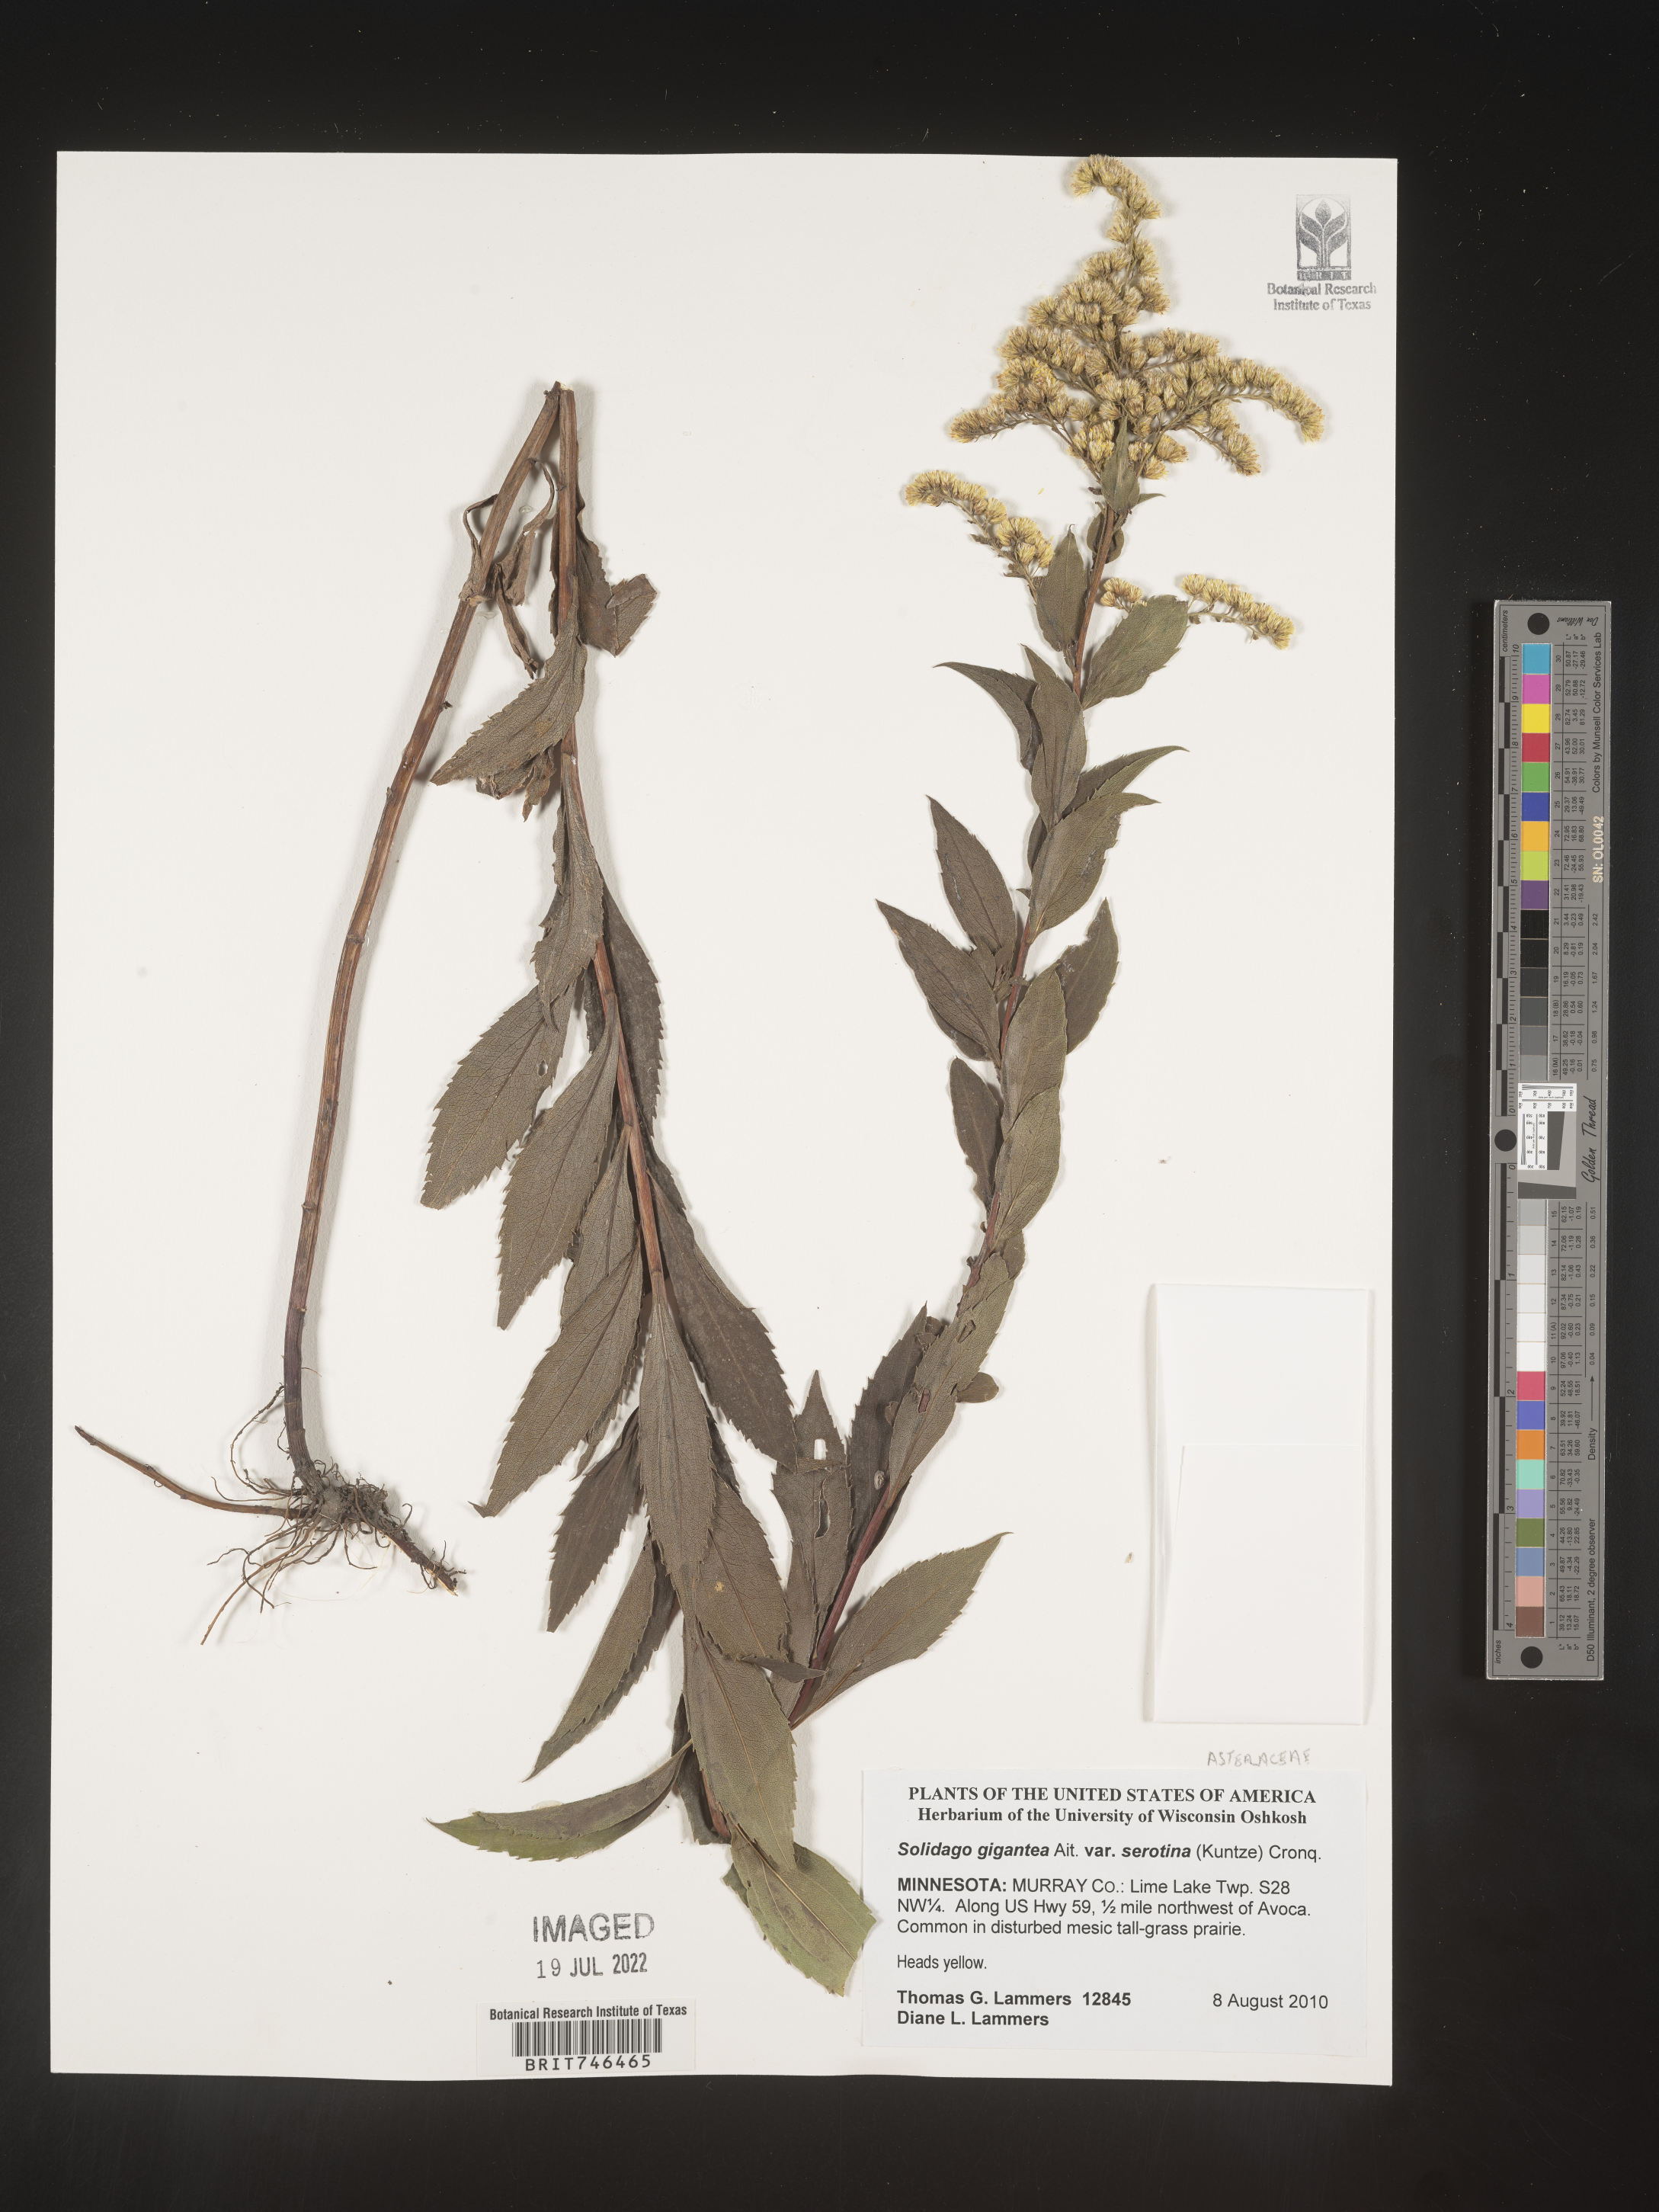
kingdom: Plantae
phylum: Tracheophyta
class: Magnoliopsida
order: Asterales
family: Asteraceae
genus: Solidago
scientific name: Solidago gigantea
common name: Giant goldenrod
